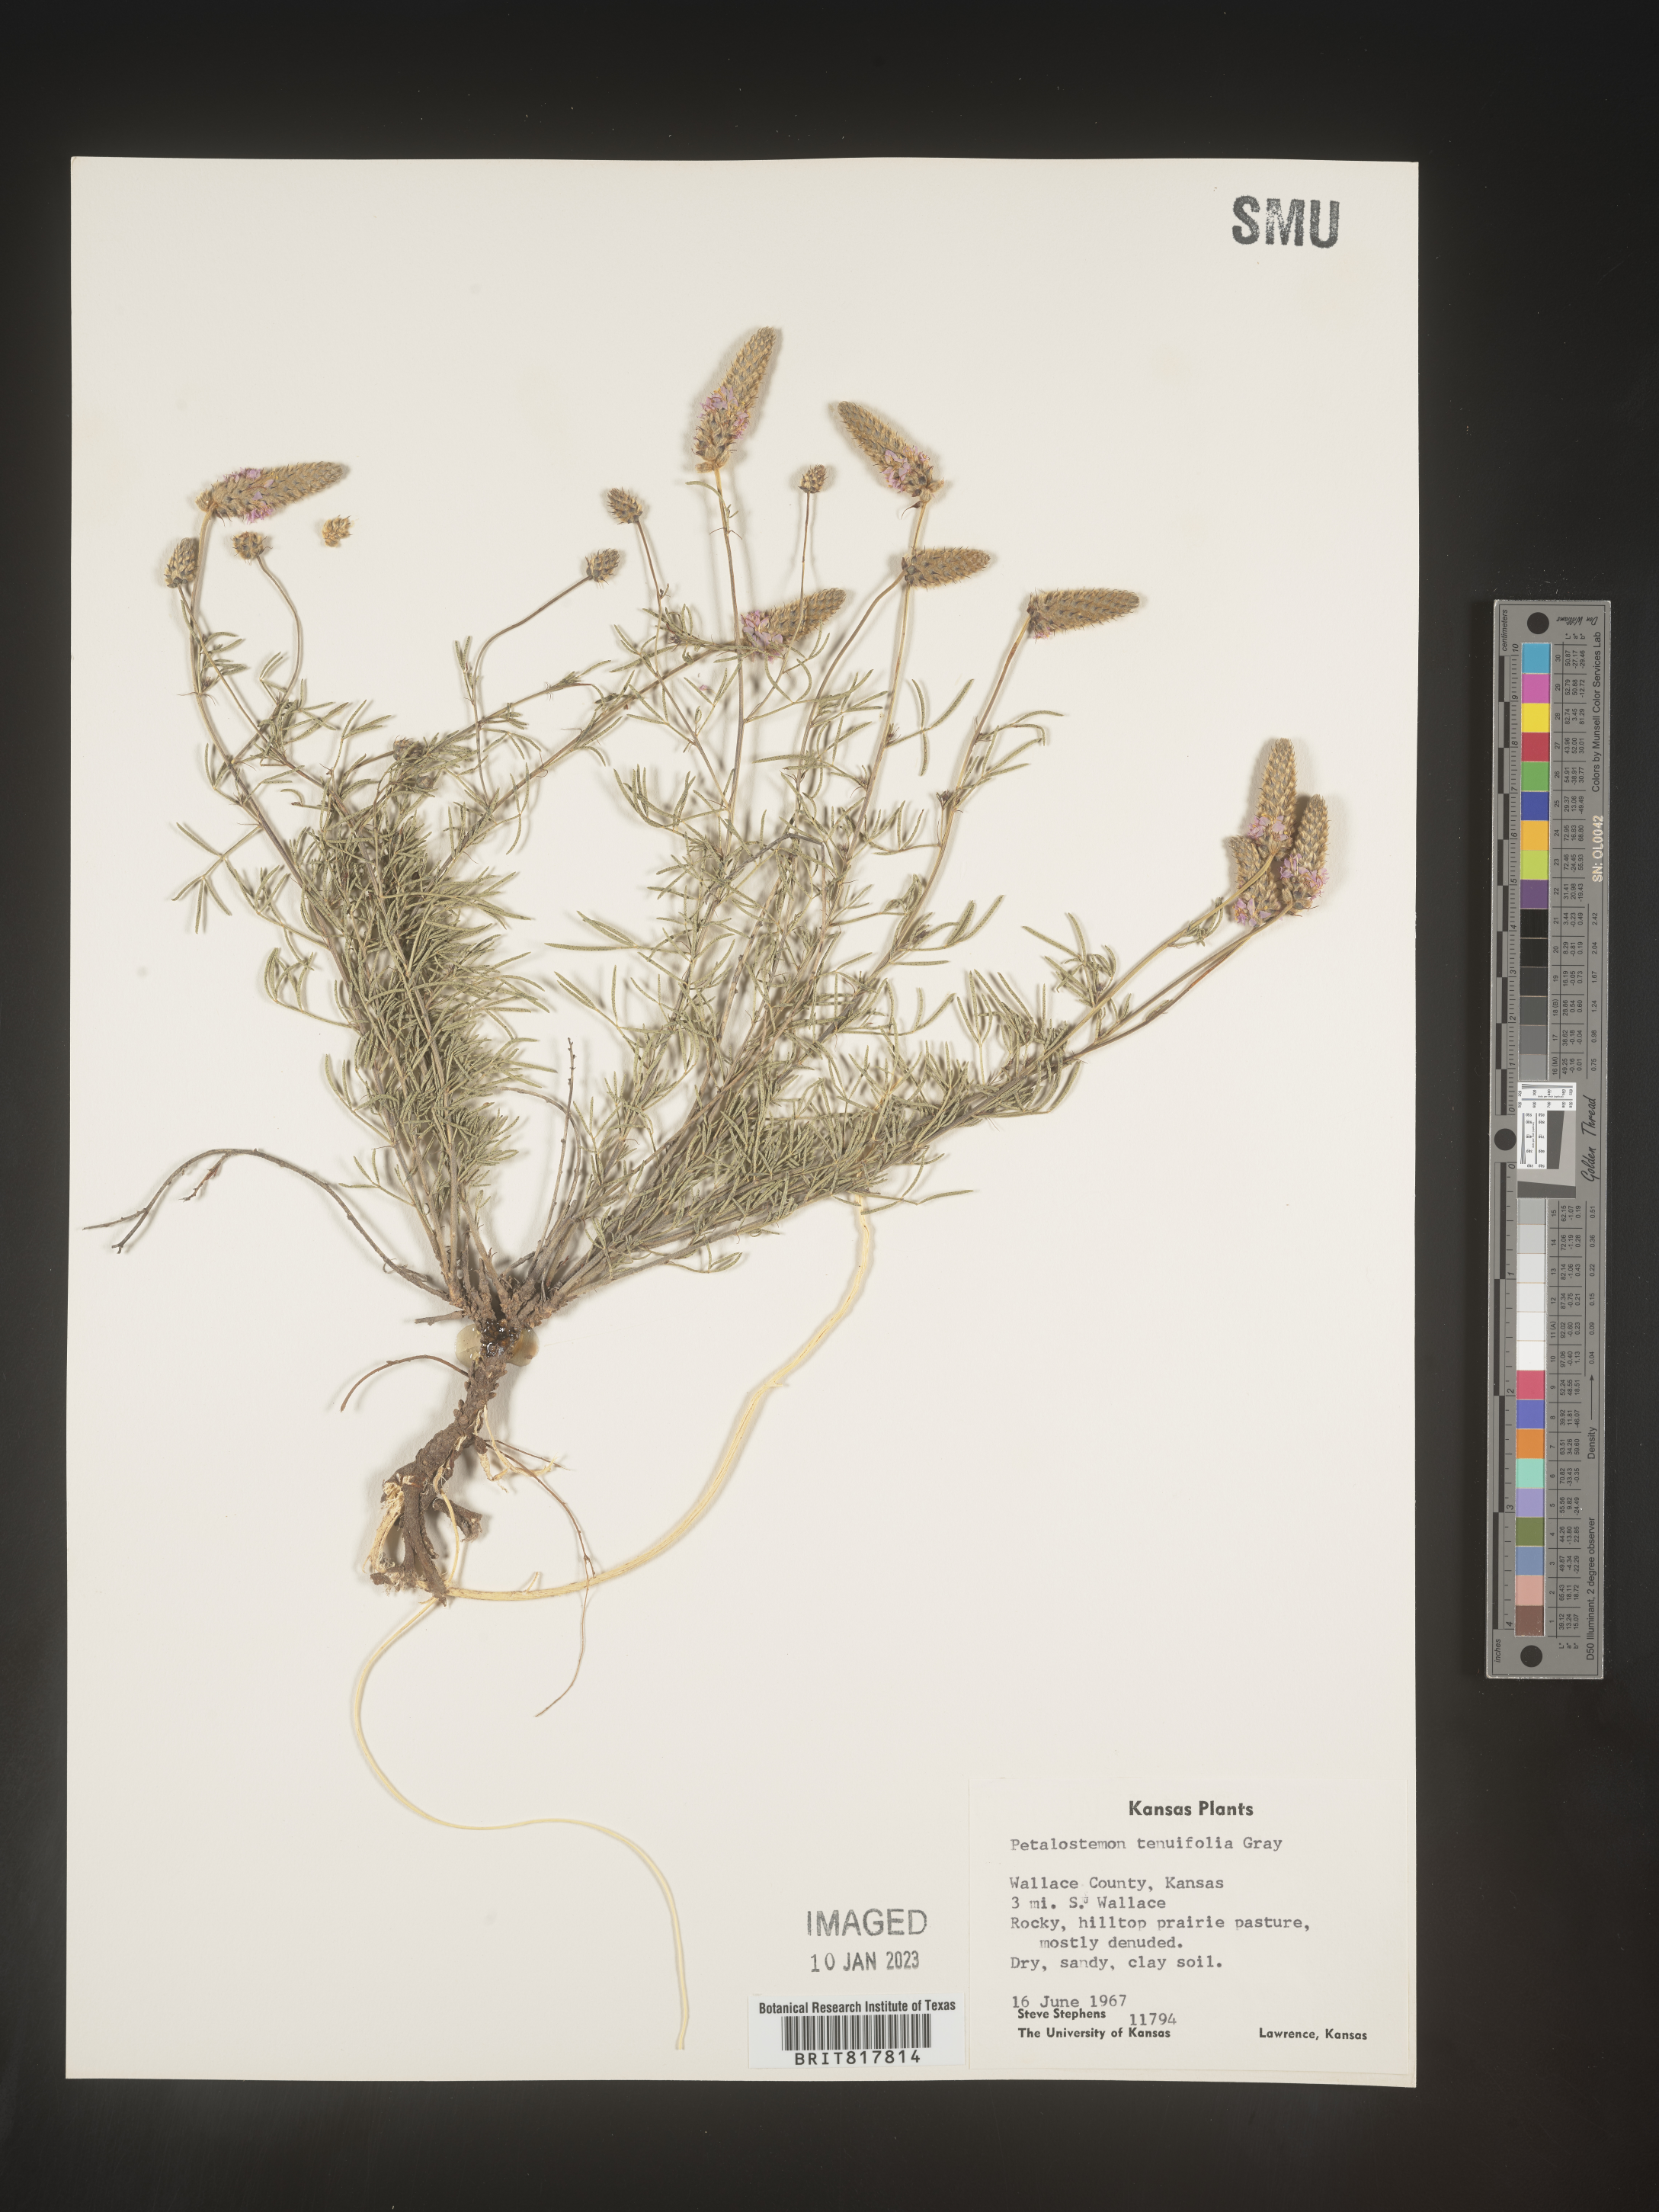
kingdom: Plantae
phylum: Tracheophyta
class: Magnoliopsida
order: Fabales
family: Fabaceae
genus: Dalea
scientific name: Dalea
